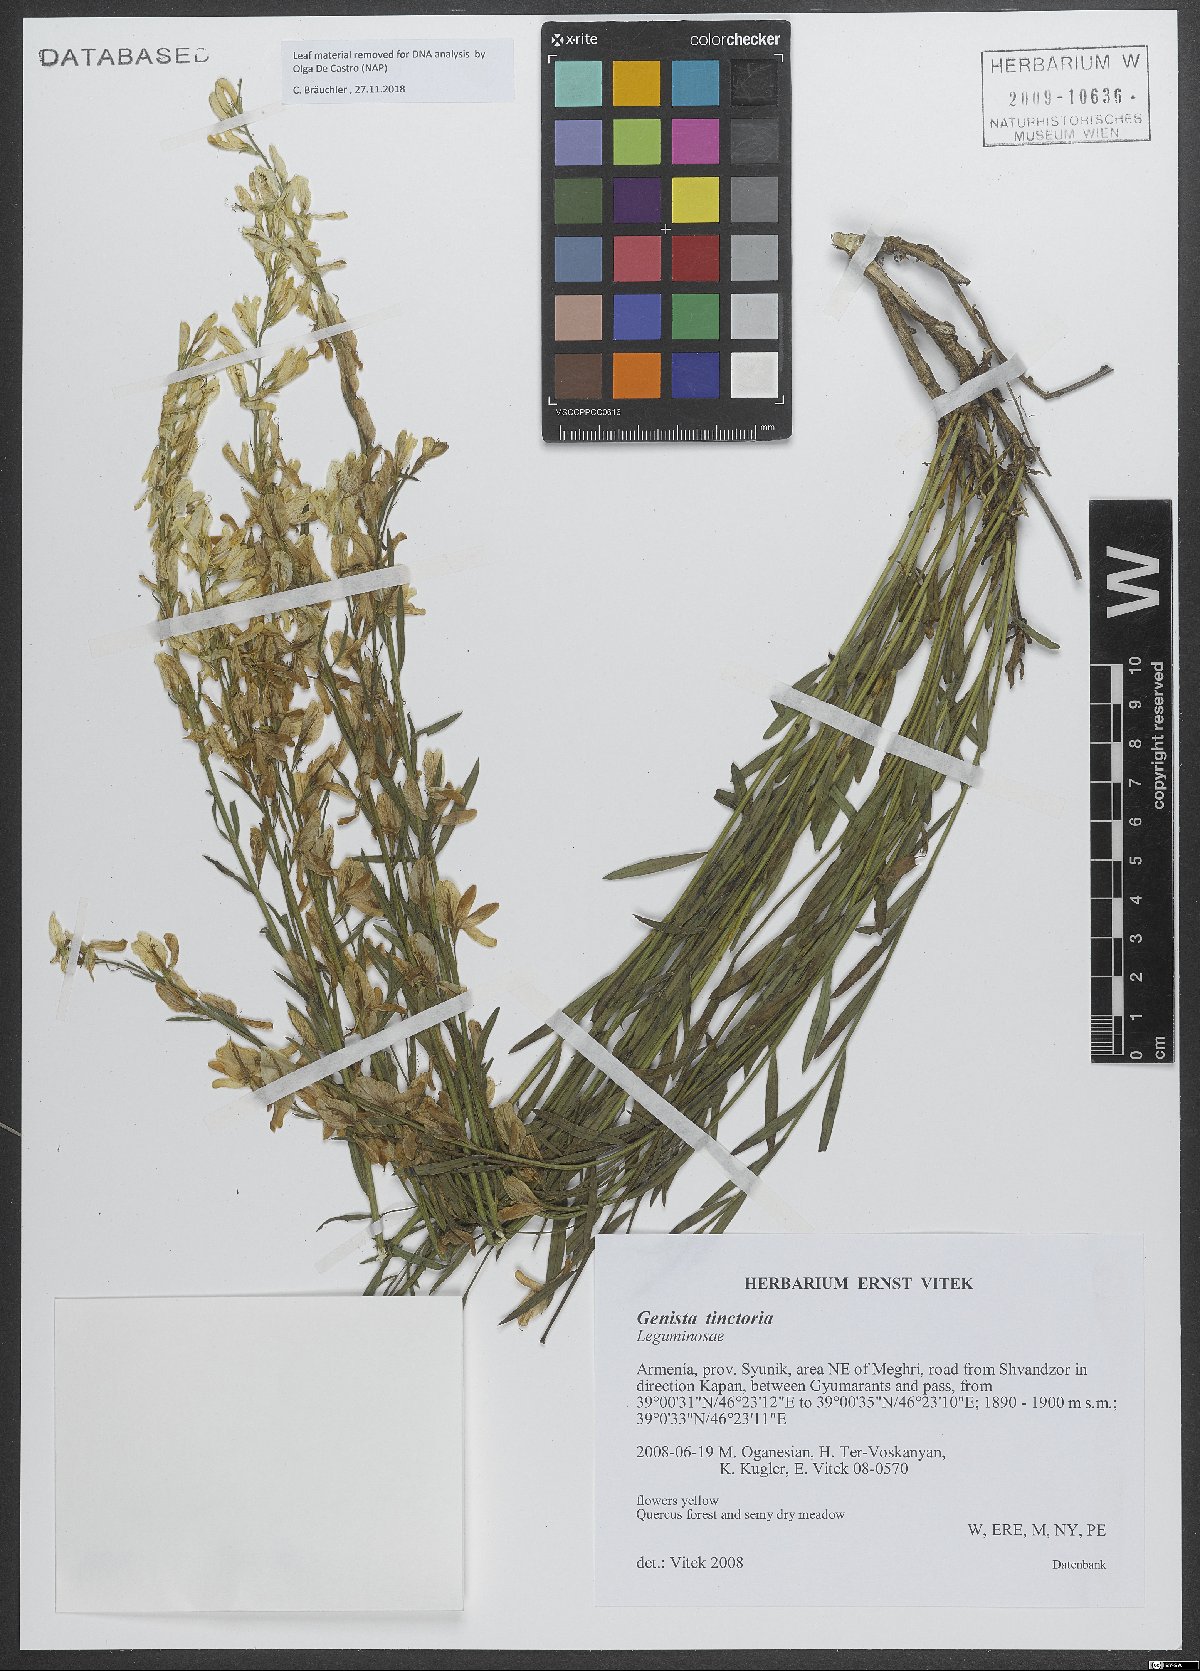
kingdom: Plantae
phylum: Tracheophyta
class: Magnoliopsida
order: Fabales
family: Fabaceae
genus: Genista
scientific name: Genista tinctoria
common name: Dyer's greenweed
